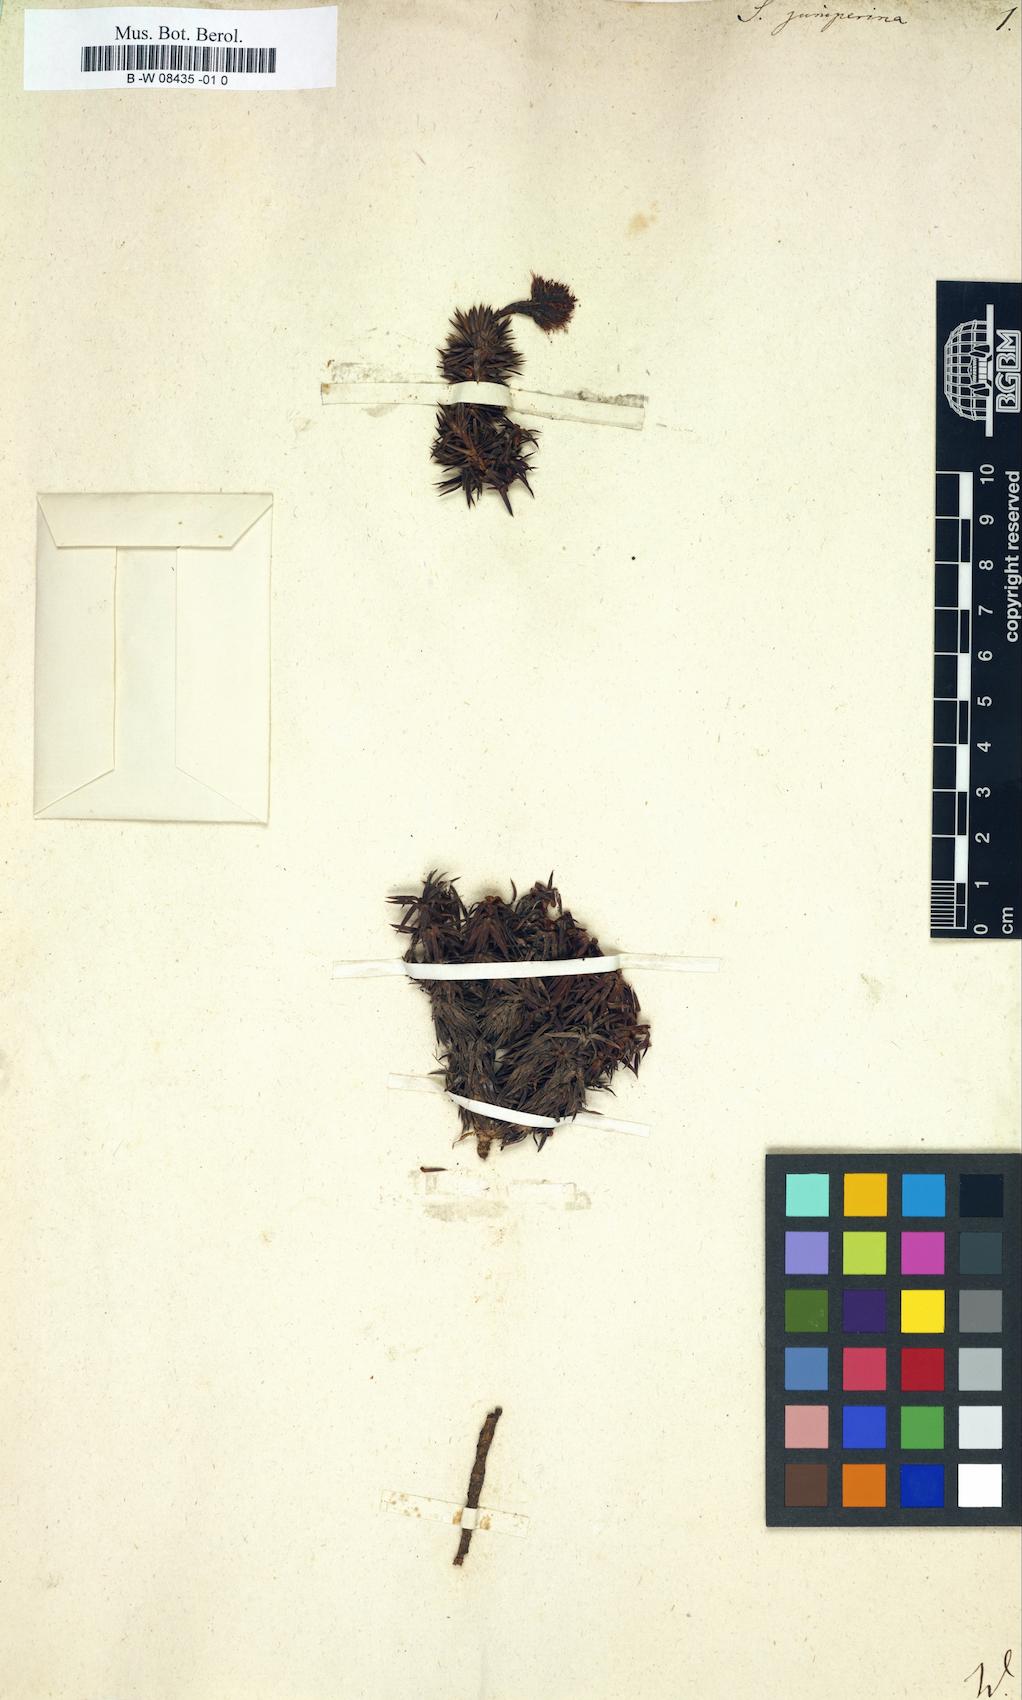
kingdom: Plantae
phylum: Tracheophyta
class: Magnoliopsida
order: Saxifragales
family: Saxifragaceae
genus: Saxifraga
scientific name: Saxifraga juniperina
